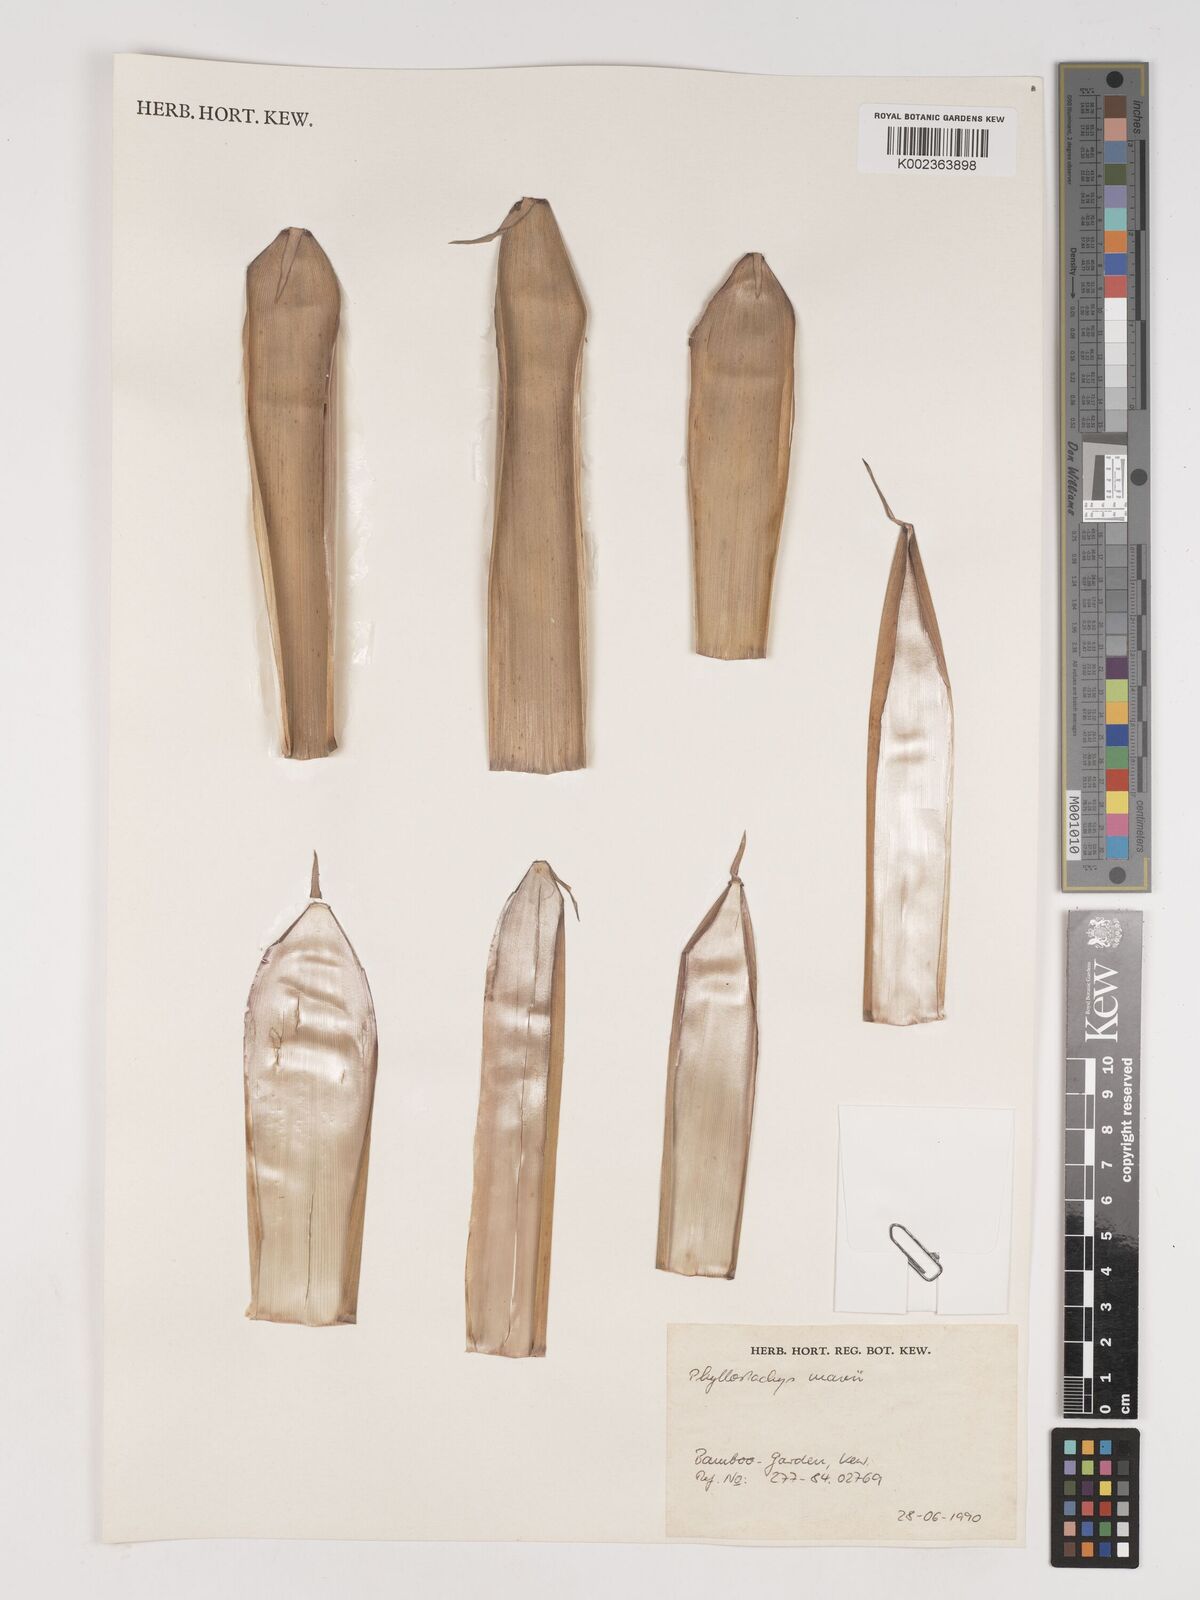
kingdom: Plantae
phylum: Tracheophyta
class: Liliopsida
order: Poales
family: Poaceae
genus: Phyllostachys
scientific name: Phyllostachys mannii
